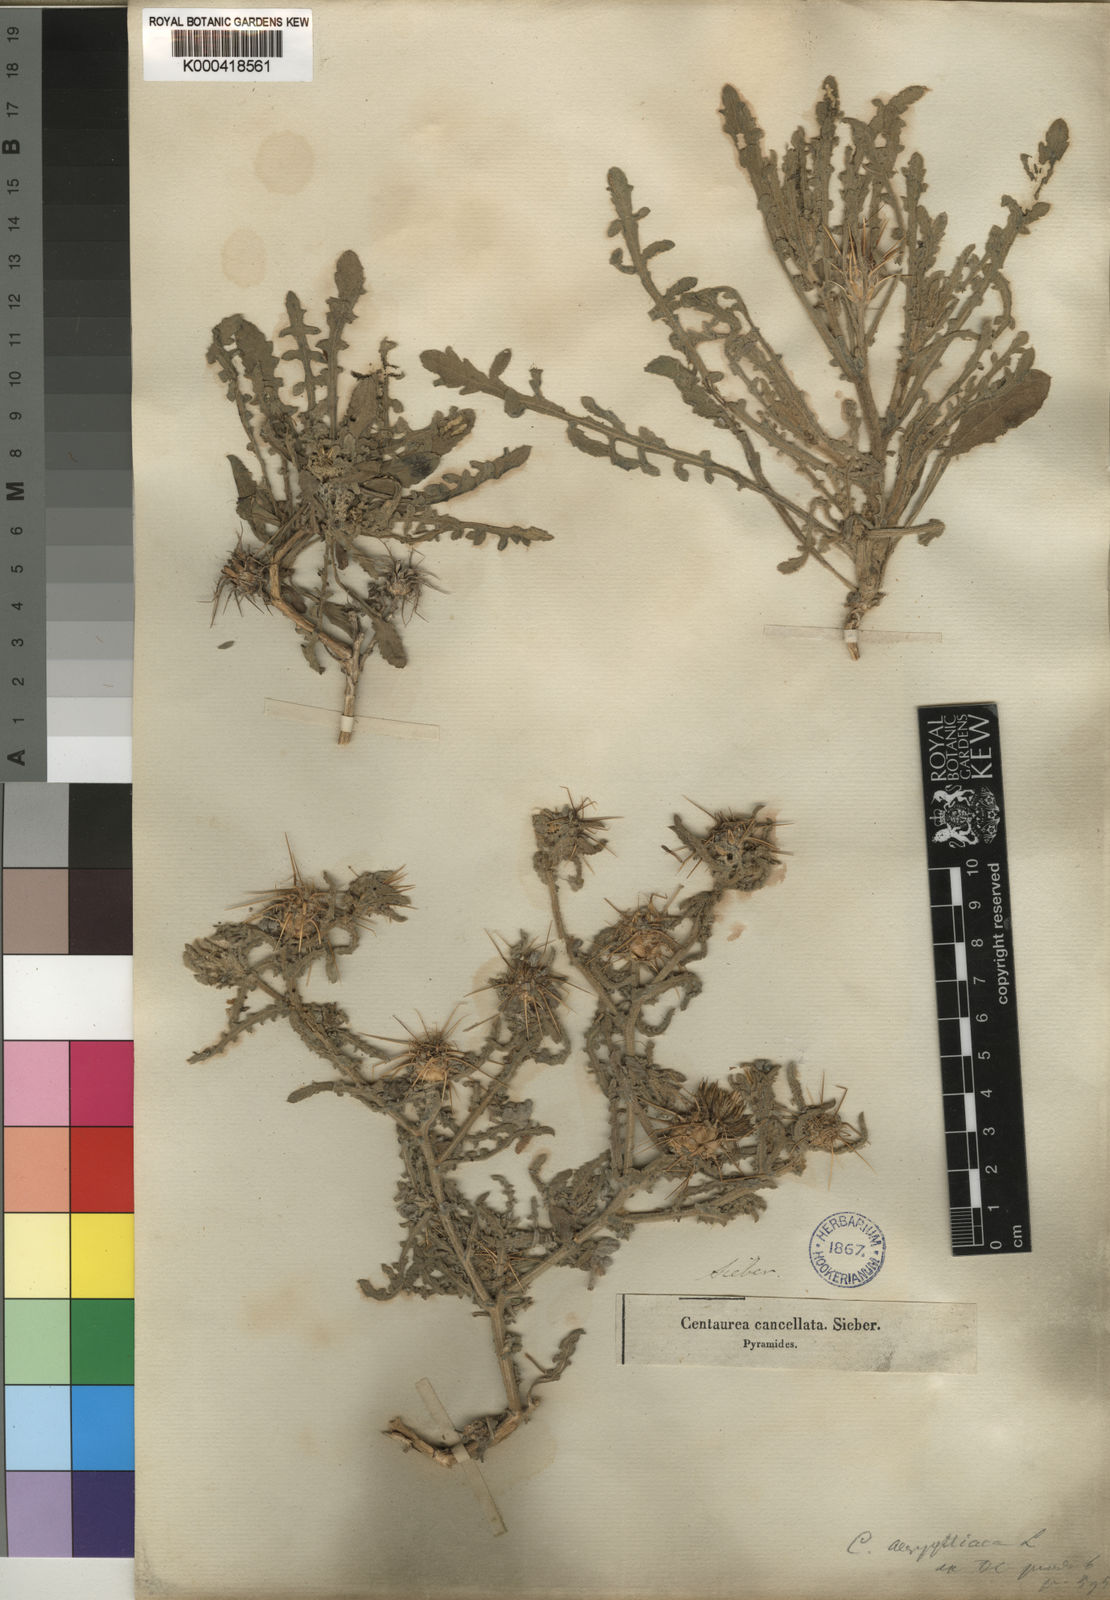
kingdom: Plantae
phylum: Tracheophyta
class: Magnoliopsida
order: Asterales
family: Asteraceae
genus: Centaurea
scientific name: Centaurea aegyptiaca
